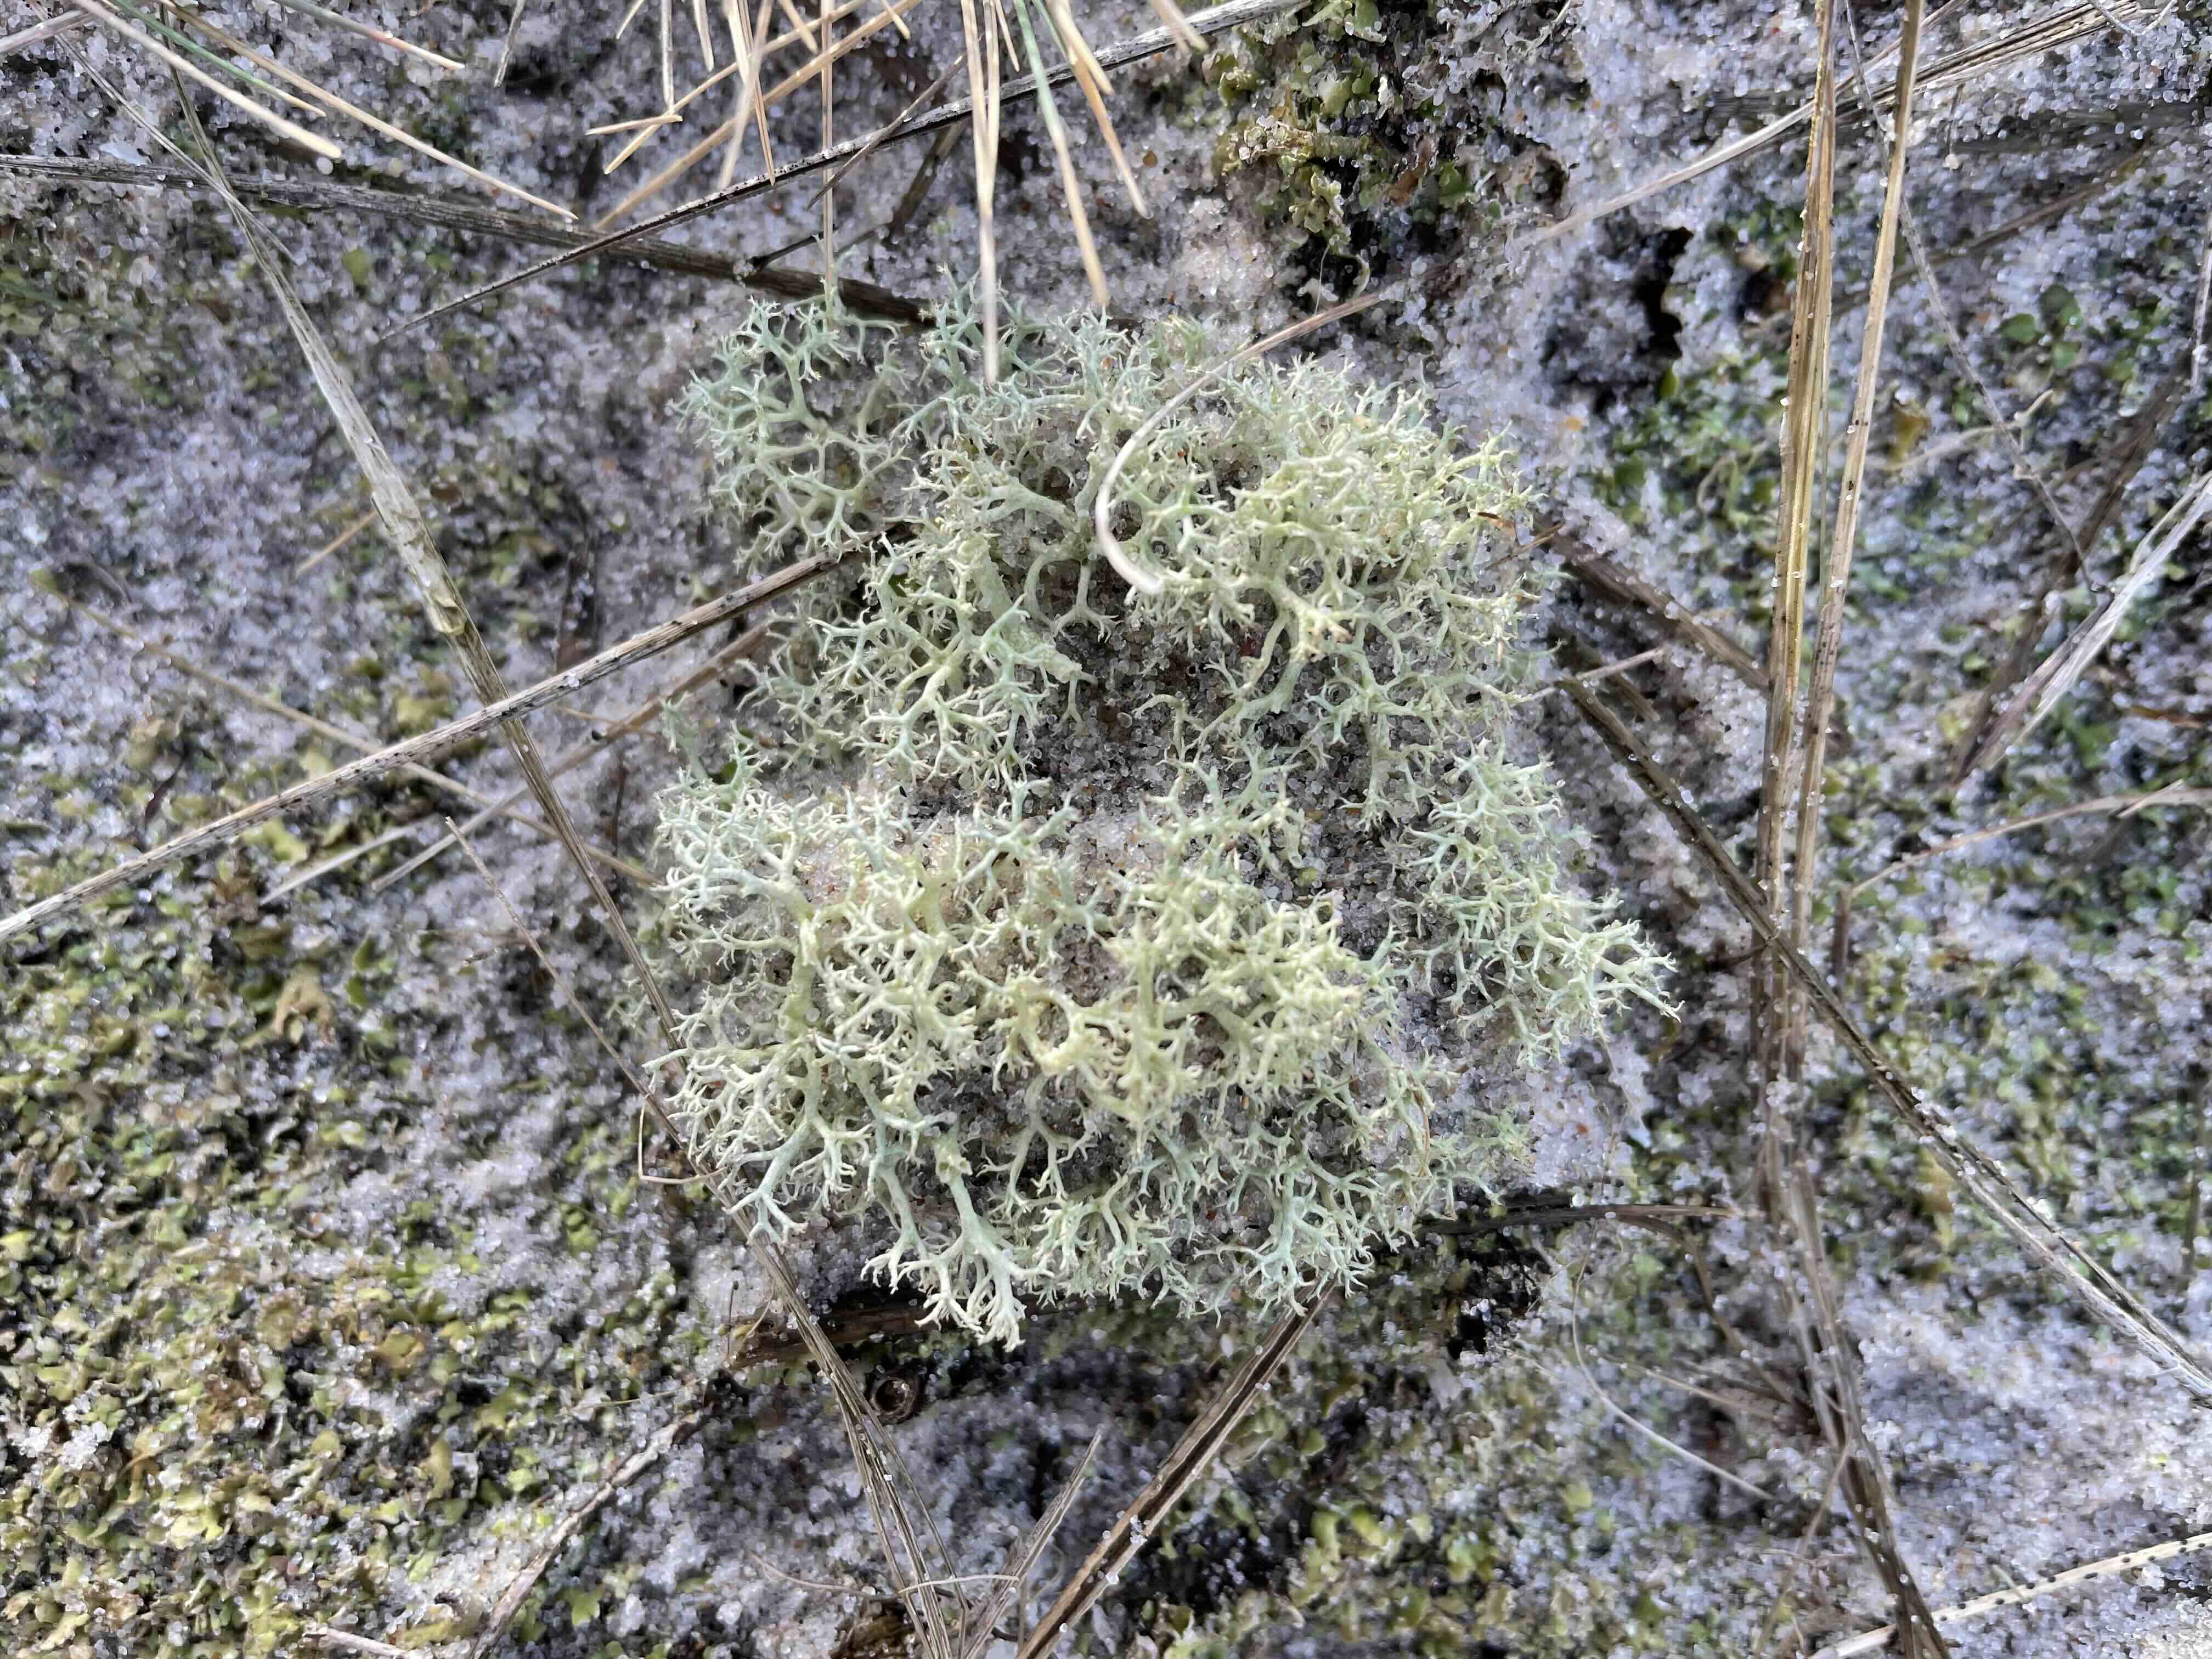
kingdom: Fungi
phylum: Ascomycota
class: Lecanoromycetes
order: Lecanorales
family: Cladoniaceae
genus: Cladonia
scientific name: Cladonia portentosa
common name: hede-rensdyrlav
